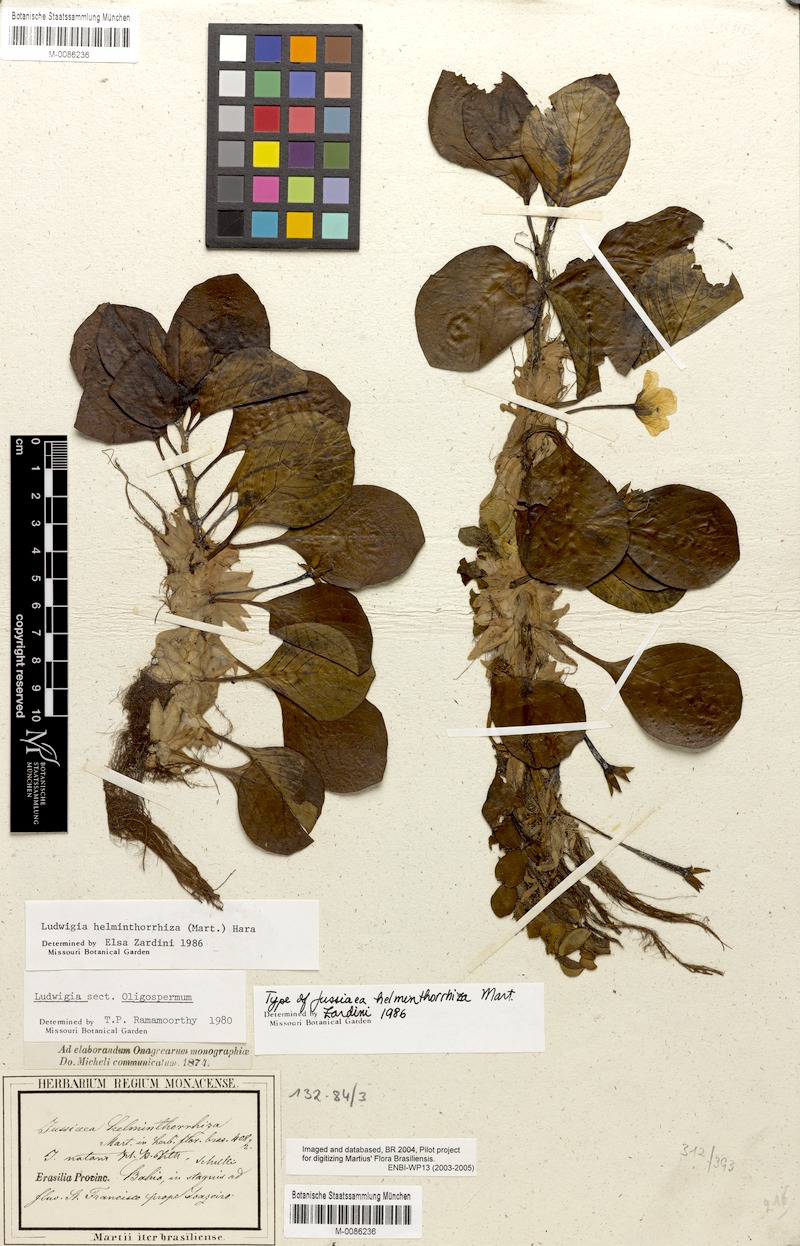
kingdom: Plantae
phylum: Tracheophyta
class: Magnoliopsida
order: Myrtales
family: Onagraceae
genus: Ludwigia
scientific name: Ludwigia helminthorrhiza
